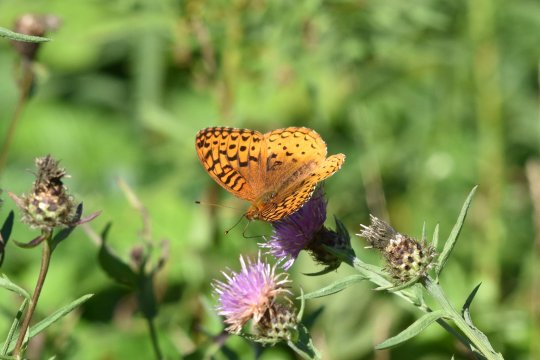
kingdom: Animalia
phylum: Arthropoda
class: Insecta
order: Lepidoptera
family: Nymphalidae
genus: Speyeria
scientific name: Speyeria cybele
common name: Great Spangled Fritillary
